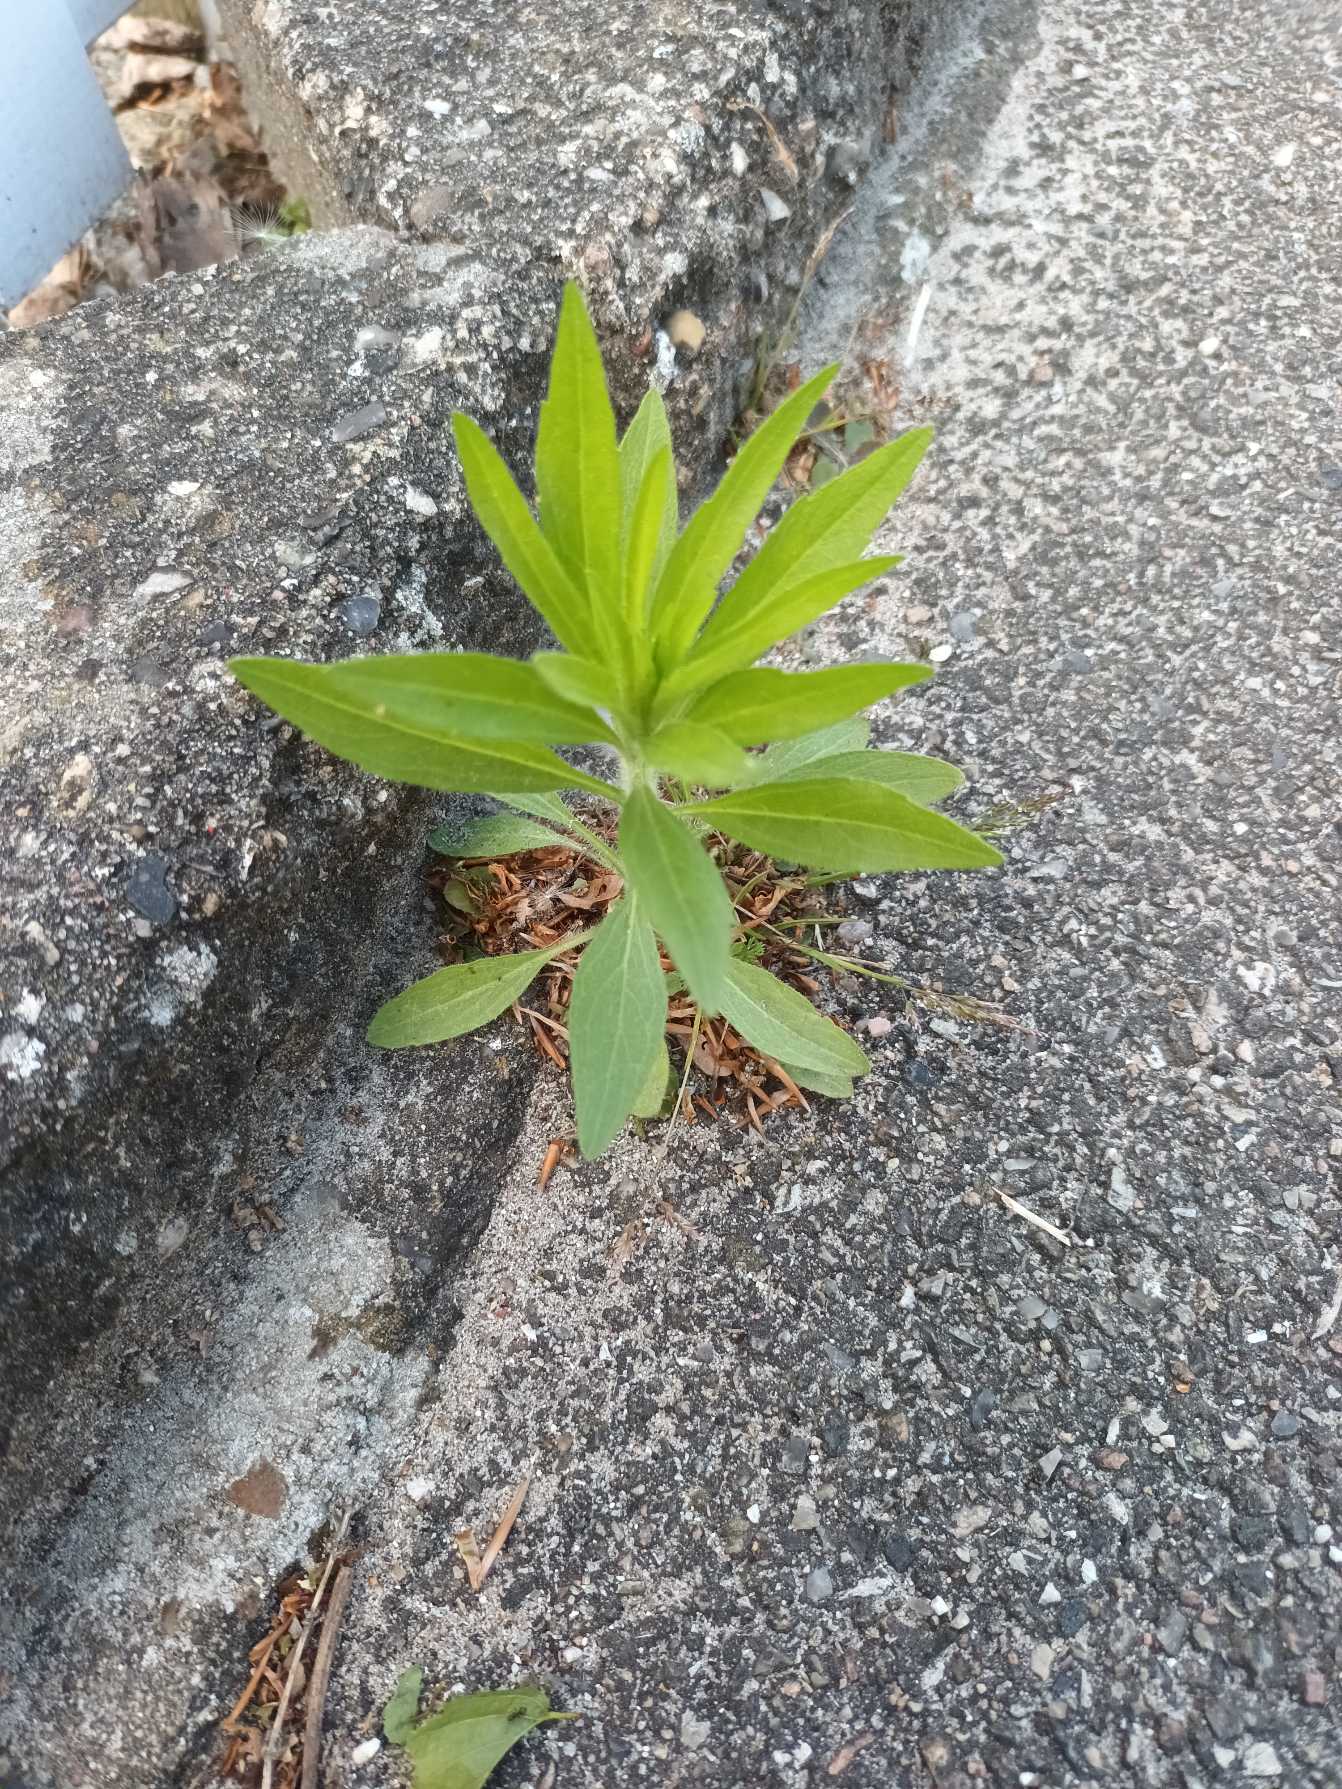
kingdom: Plantae
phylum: Tracheophyta
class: Magnoliopsida
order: Asterales
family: Asteraceae
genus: Erigeron
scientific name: Erigeron canadensis
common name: Kanadisk bakkestjerne
